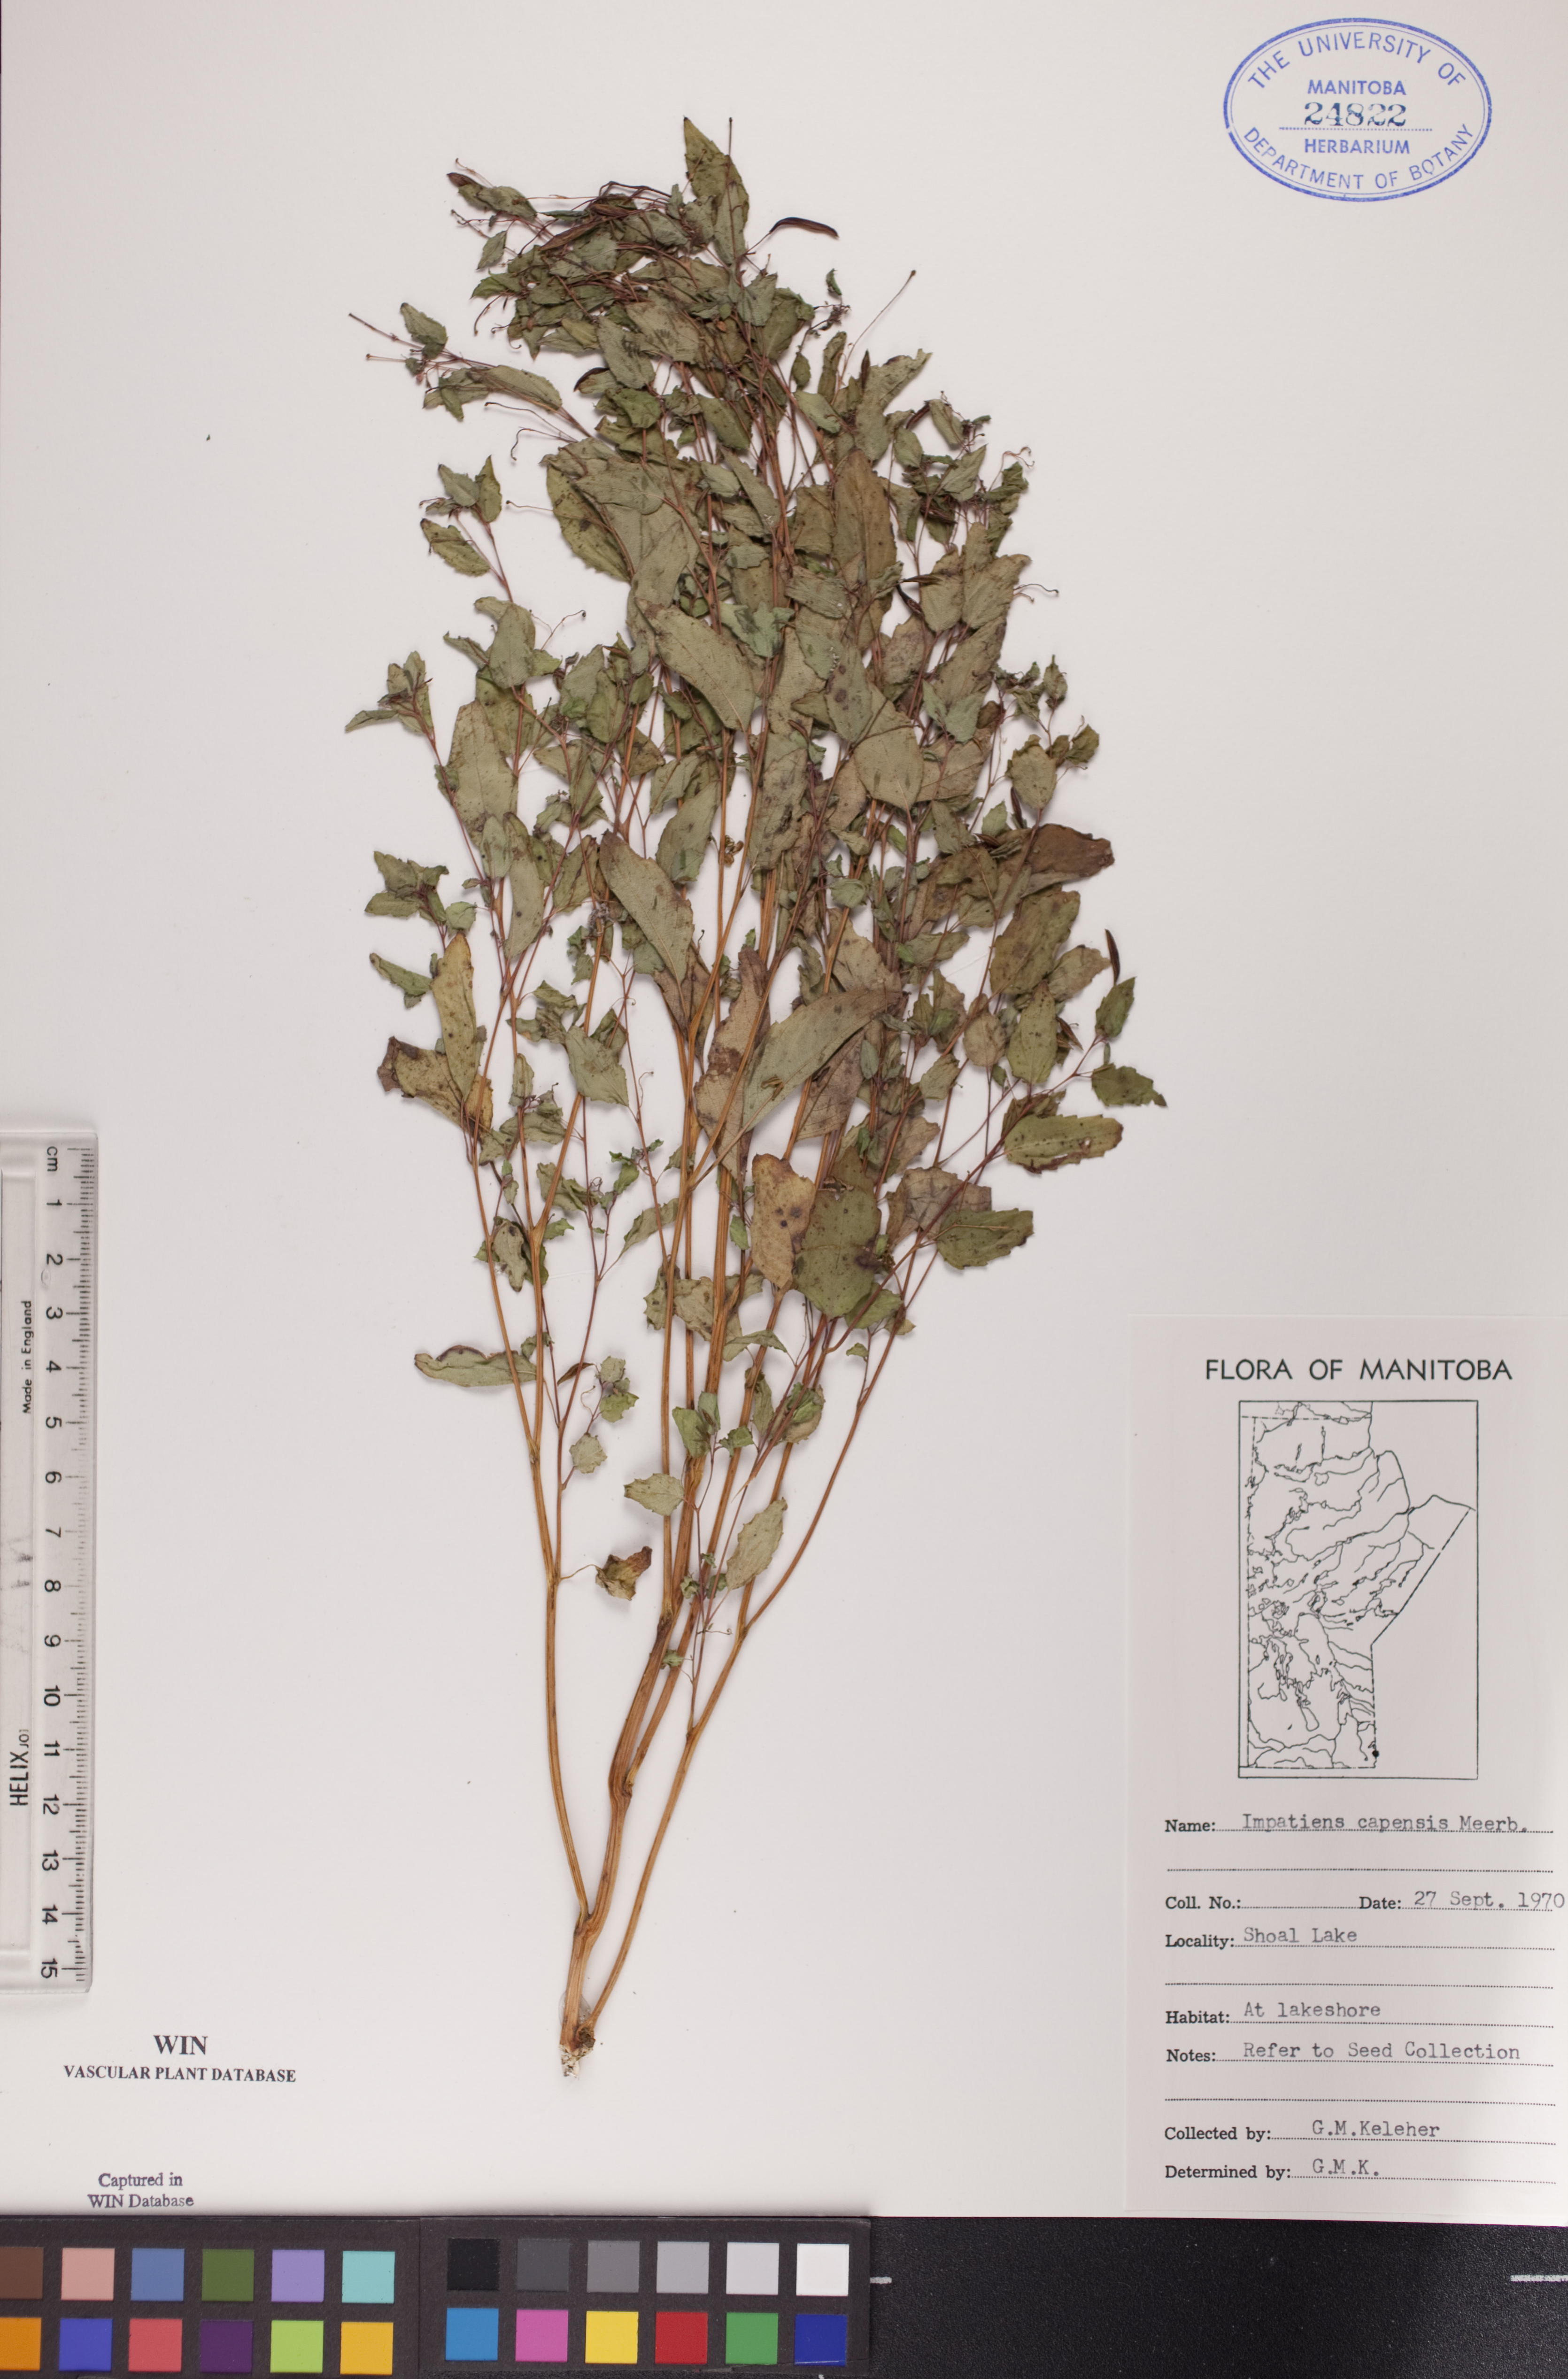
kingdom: Plantae
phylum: Tracheophyta
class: Magnoliopsida
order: Ericales
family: Balsaminaceae
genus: Impatiens
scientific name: Impatiens capensis
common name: Orange balsam
